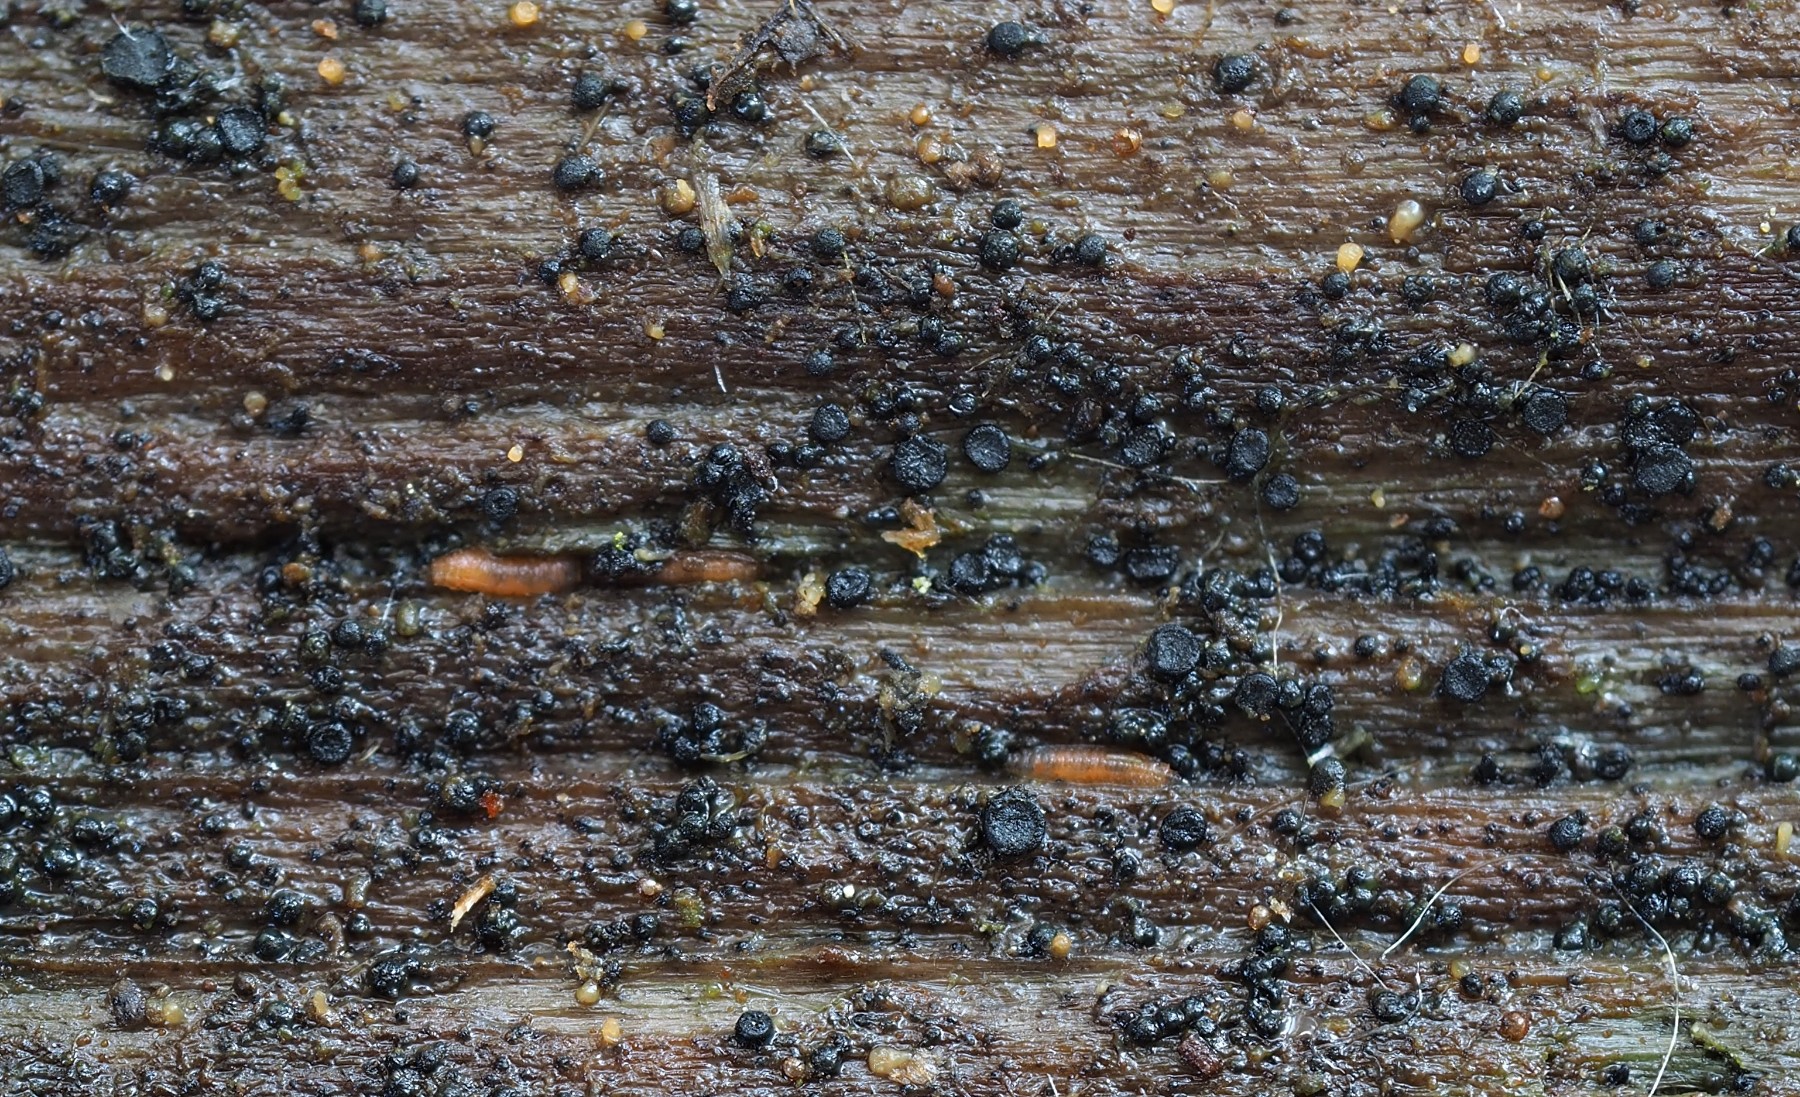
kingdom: Fungi
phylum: Ascomycota
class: Dothideomycetes
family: Rhizodiscinaceae
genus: Rhizodiscina
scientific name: Rhizodiscina lignyota
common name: almindelig begskive
